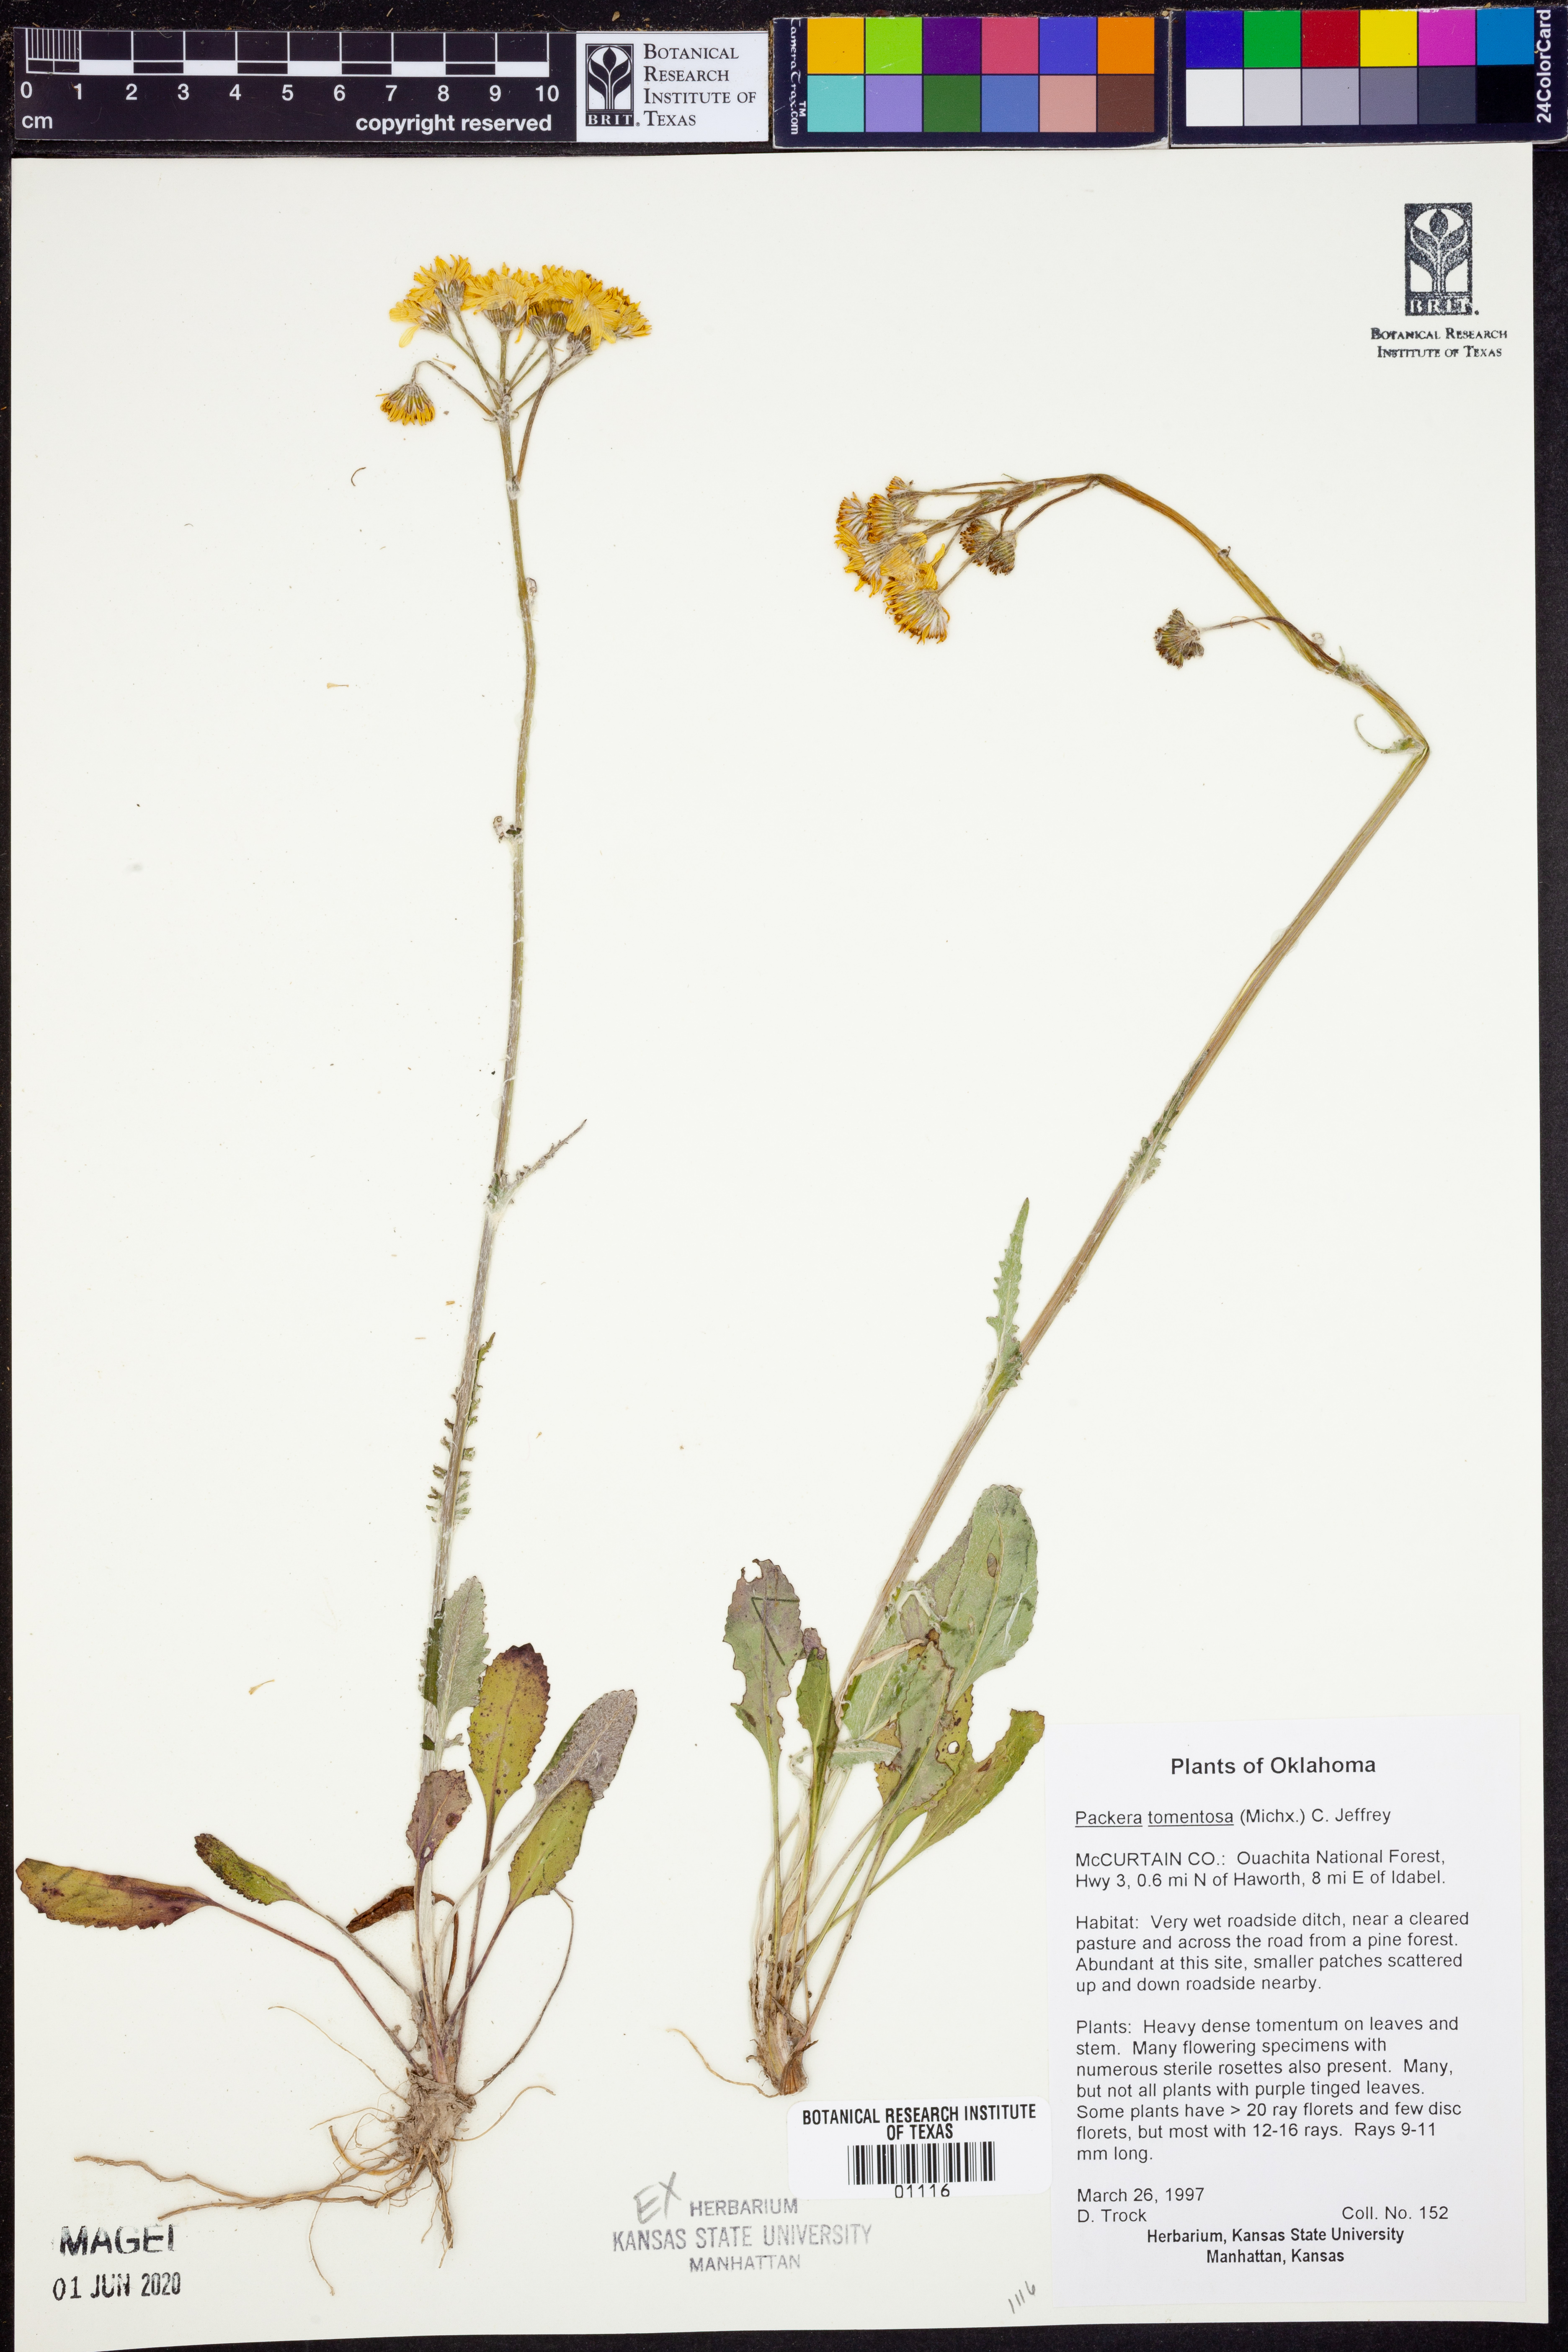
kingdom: Plantae
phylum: Tracheophyta
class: Magnoliopsida
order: Asterales
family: Asteraceae
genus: Packera
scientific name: Packera dubia
